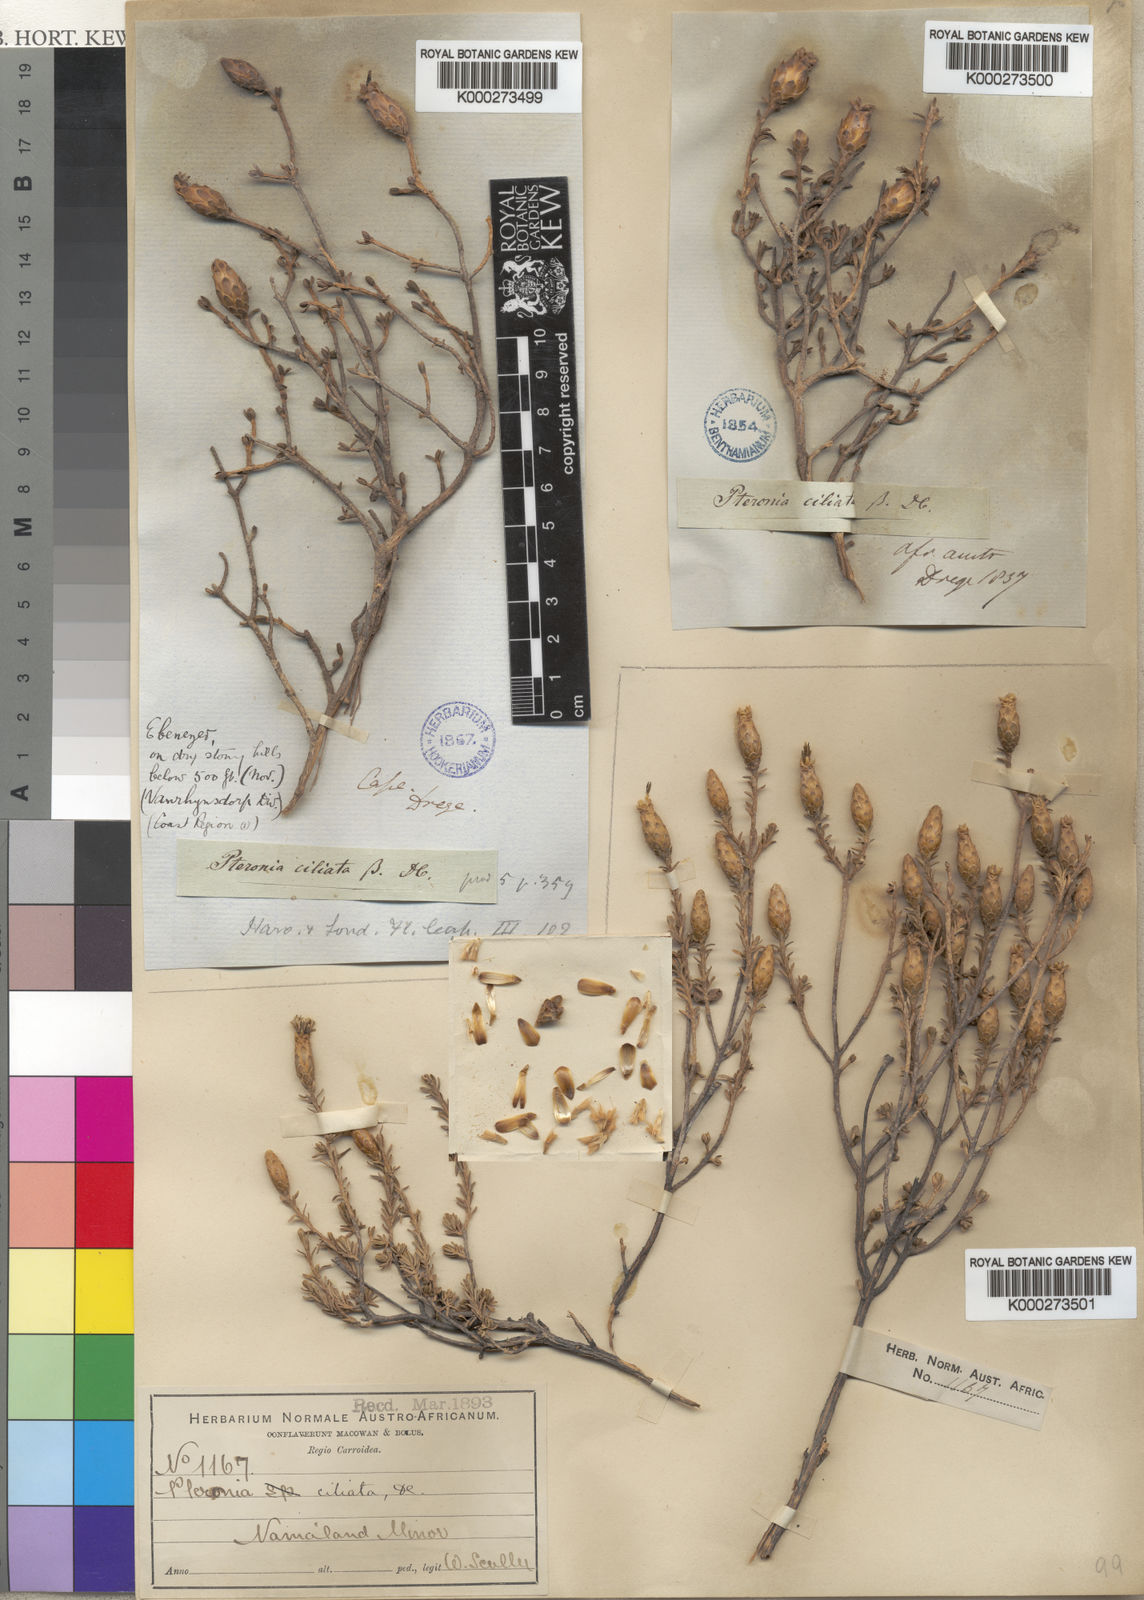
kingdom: Plantae
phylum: Tracheophyta
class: Magnoliopsida
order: Asterales
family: Asteraceae
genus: Pteronia
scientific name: Pteronia ciliata
